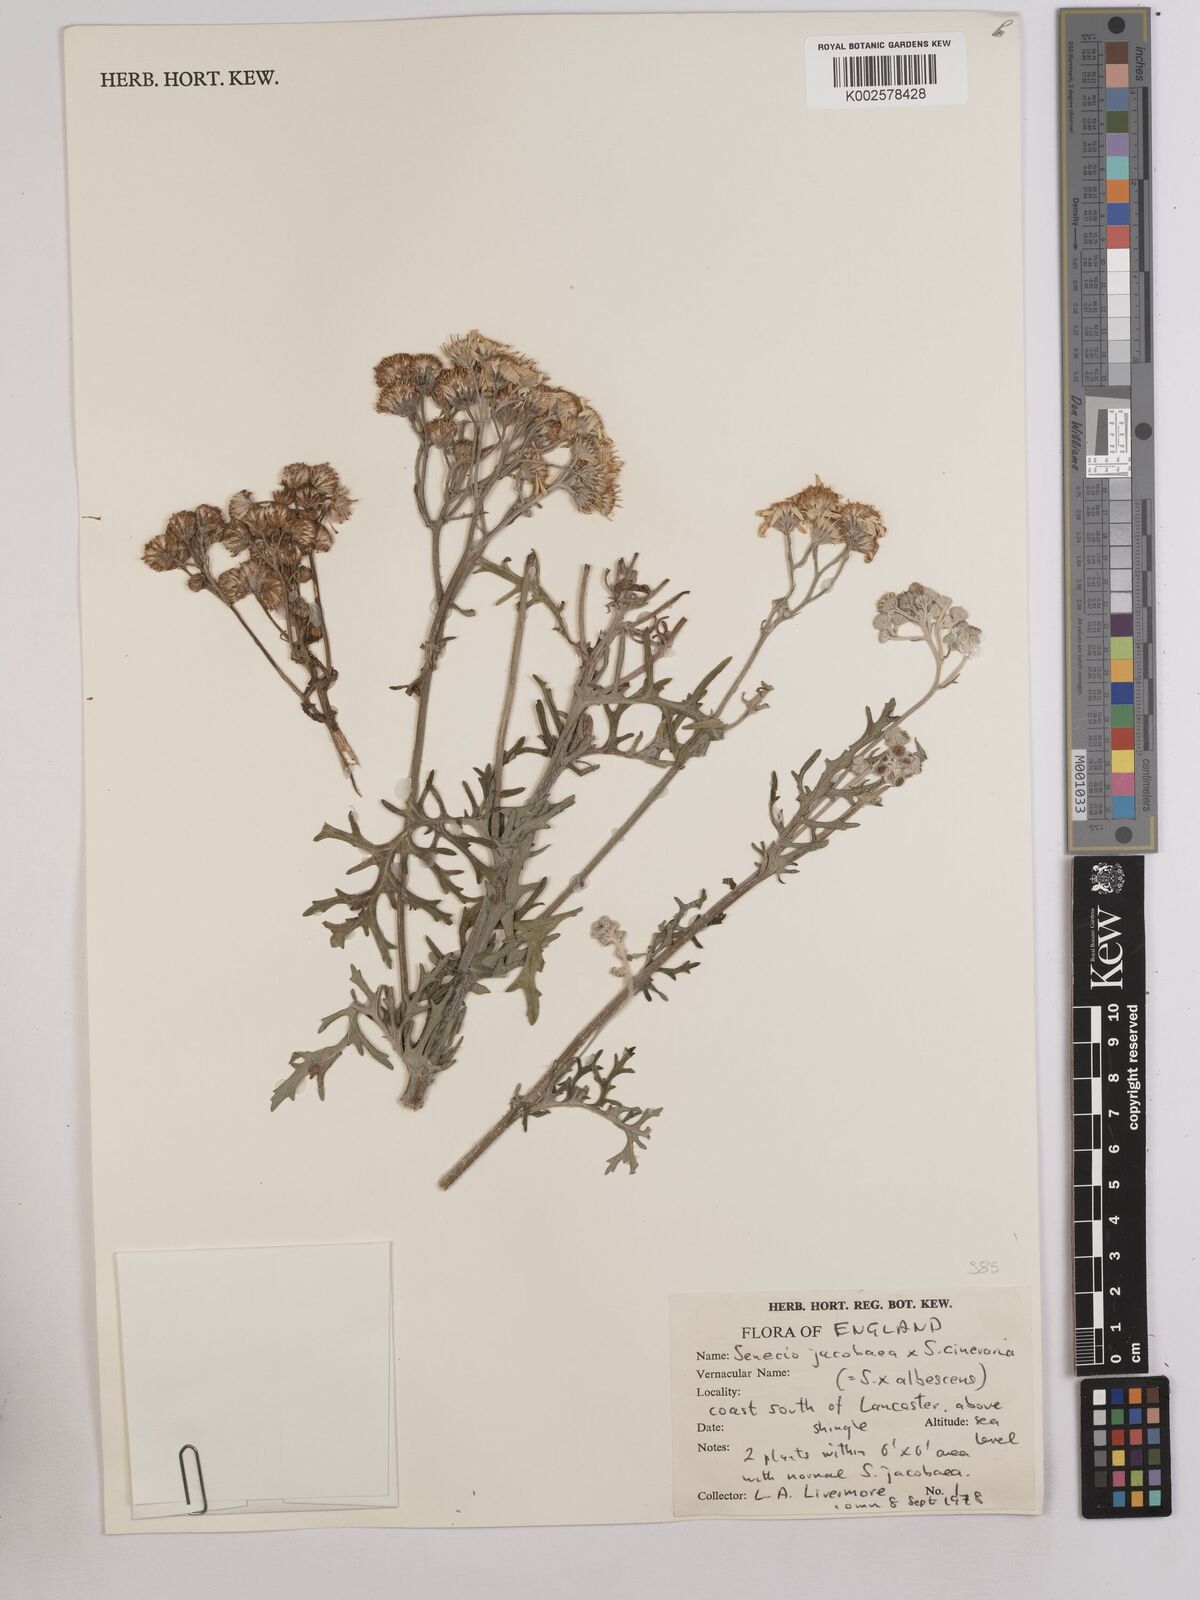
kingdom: Plantae
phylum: Tracheophyta
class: Magnoliopsida
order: Asterales
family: Asteraceae
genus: Jacobaea
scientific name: Jacobaea vulgaris
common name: Stinking willie
